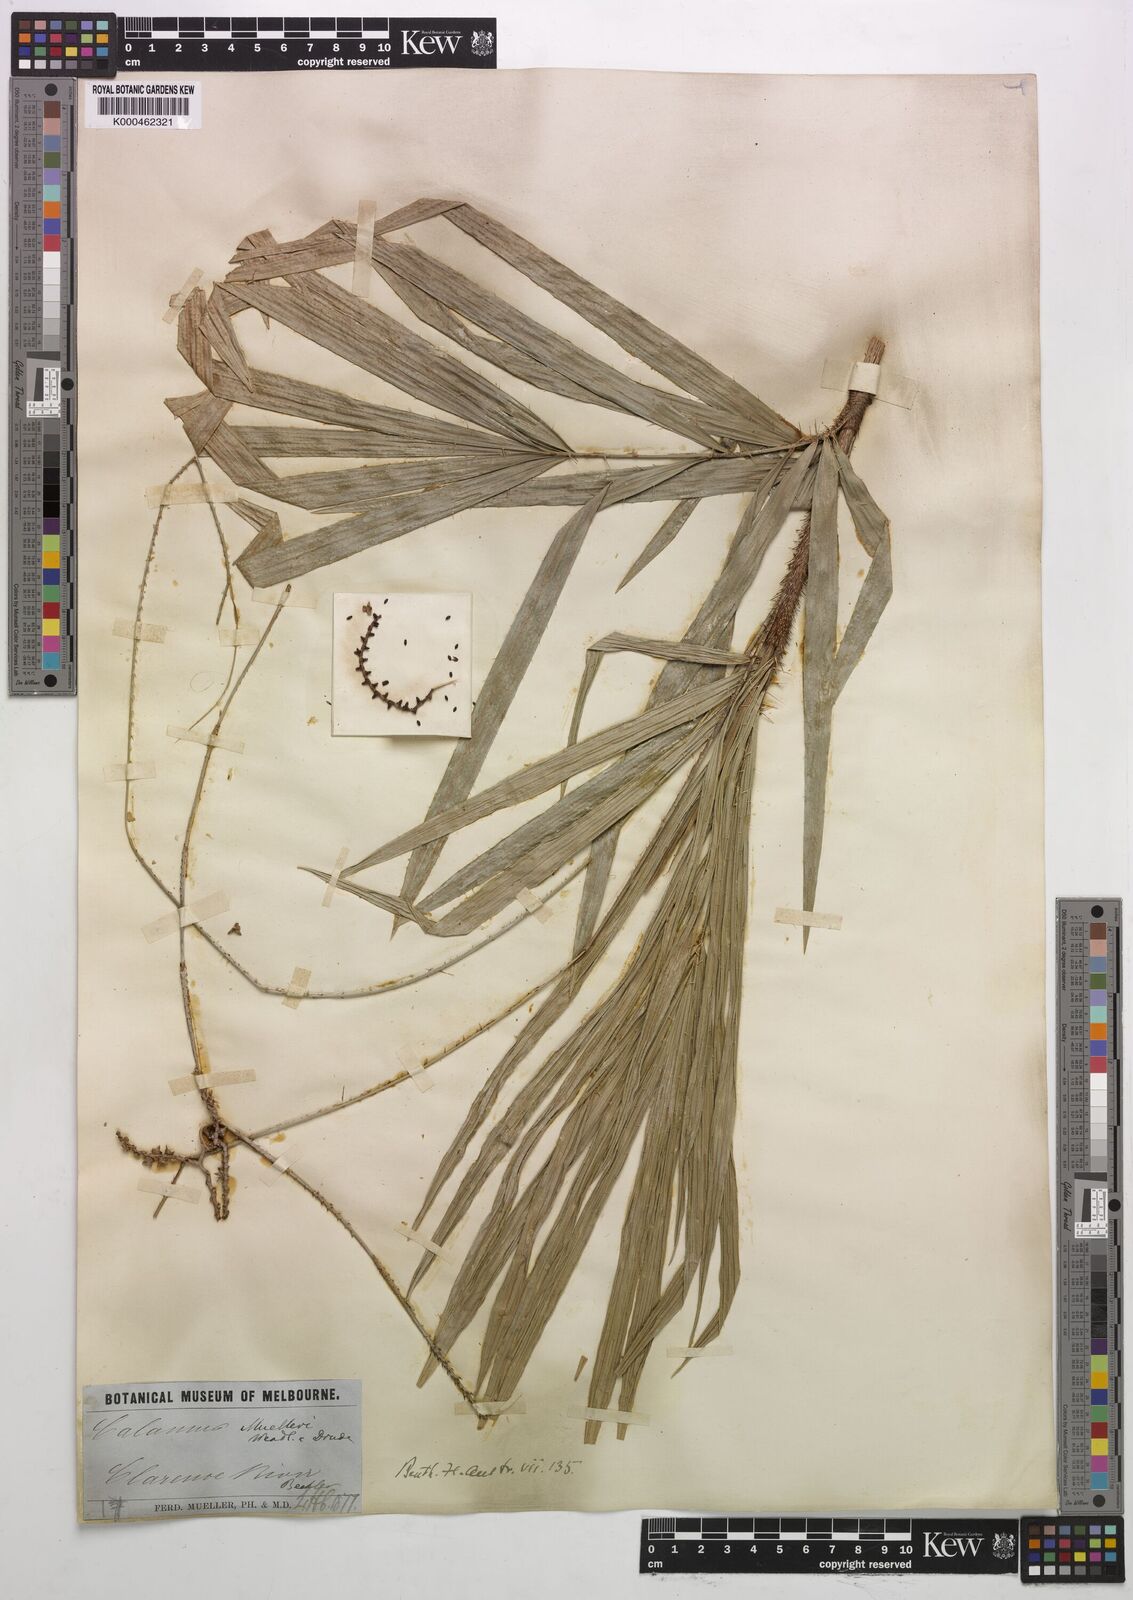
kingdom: Plantae
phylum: Tracheophyta
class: Liliopsida
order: Arecales
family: Arecaceae
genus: Calamus
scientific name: Calamus muelleri
